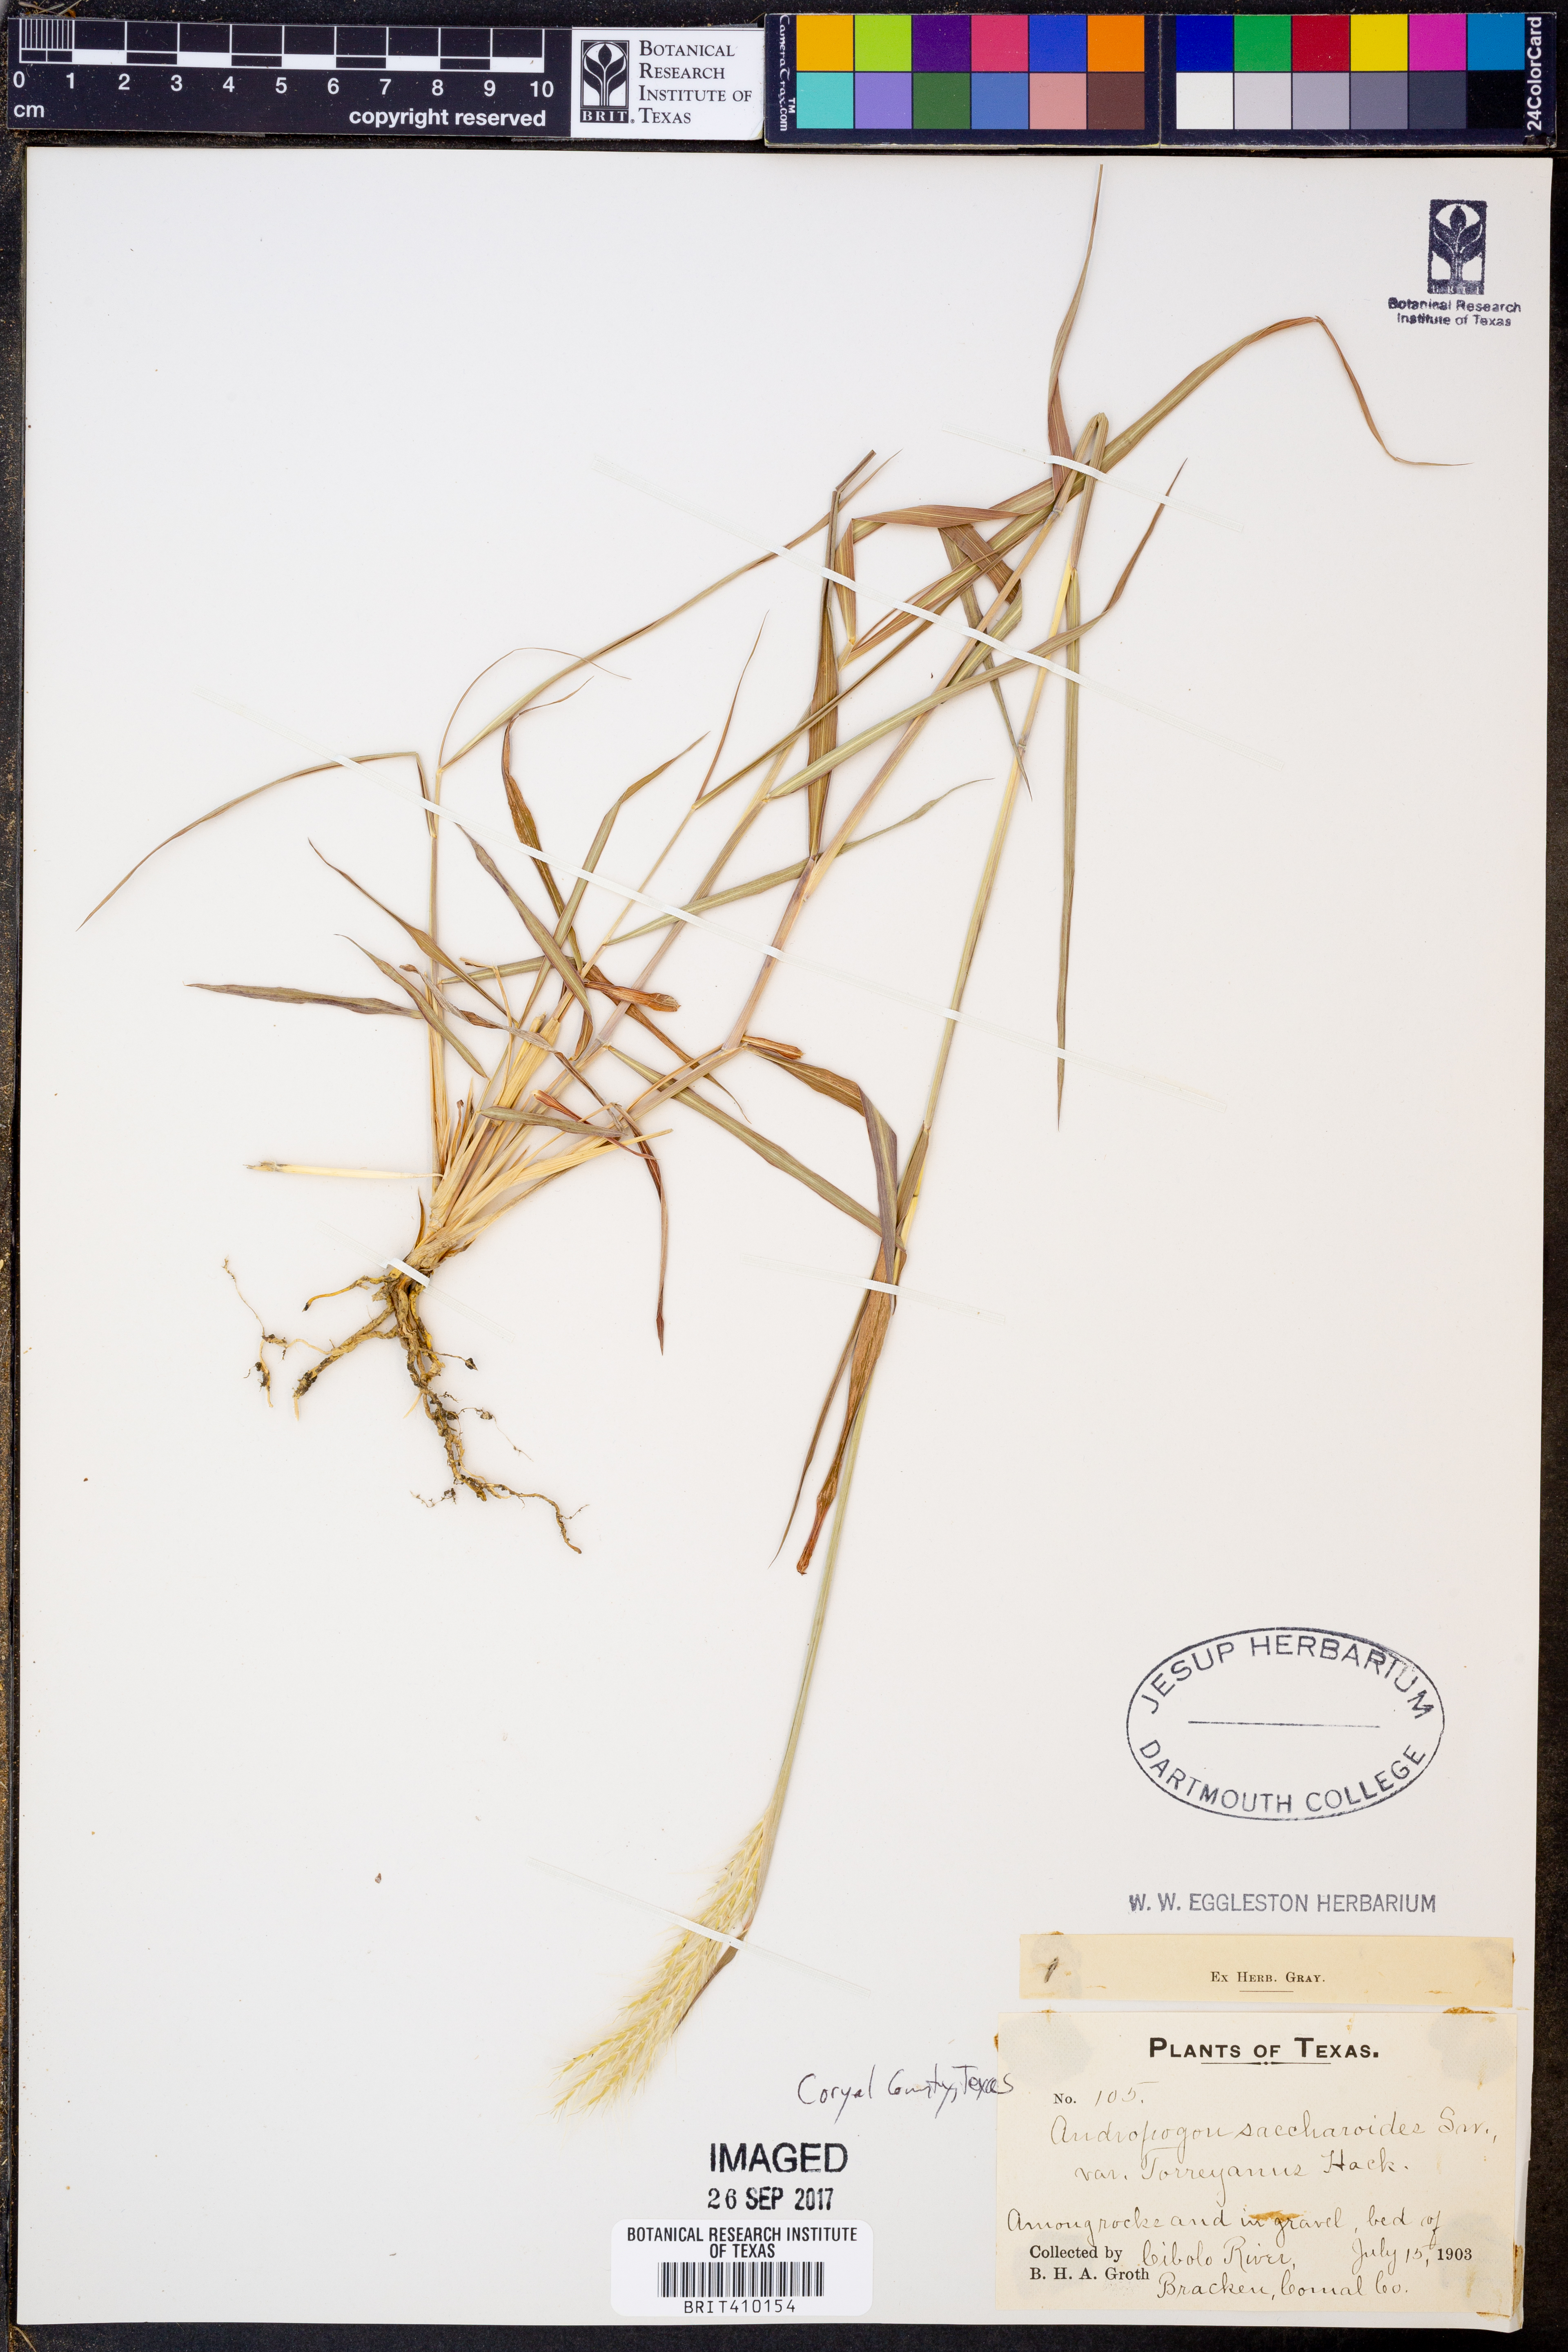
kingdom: Plantae
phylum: Tracheophyta
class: Liliopsida
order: Poales
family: Poaceae
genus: Bothriochloa
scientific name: Bothriochloa torreyana
